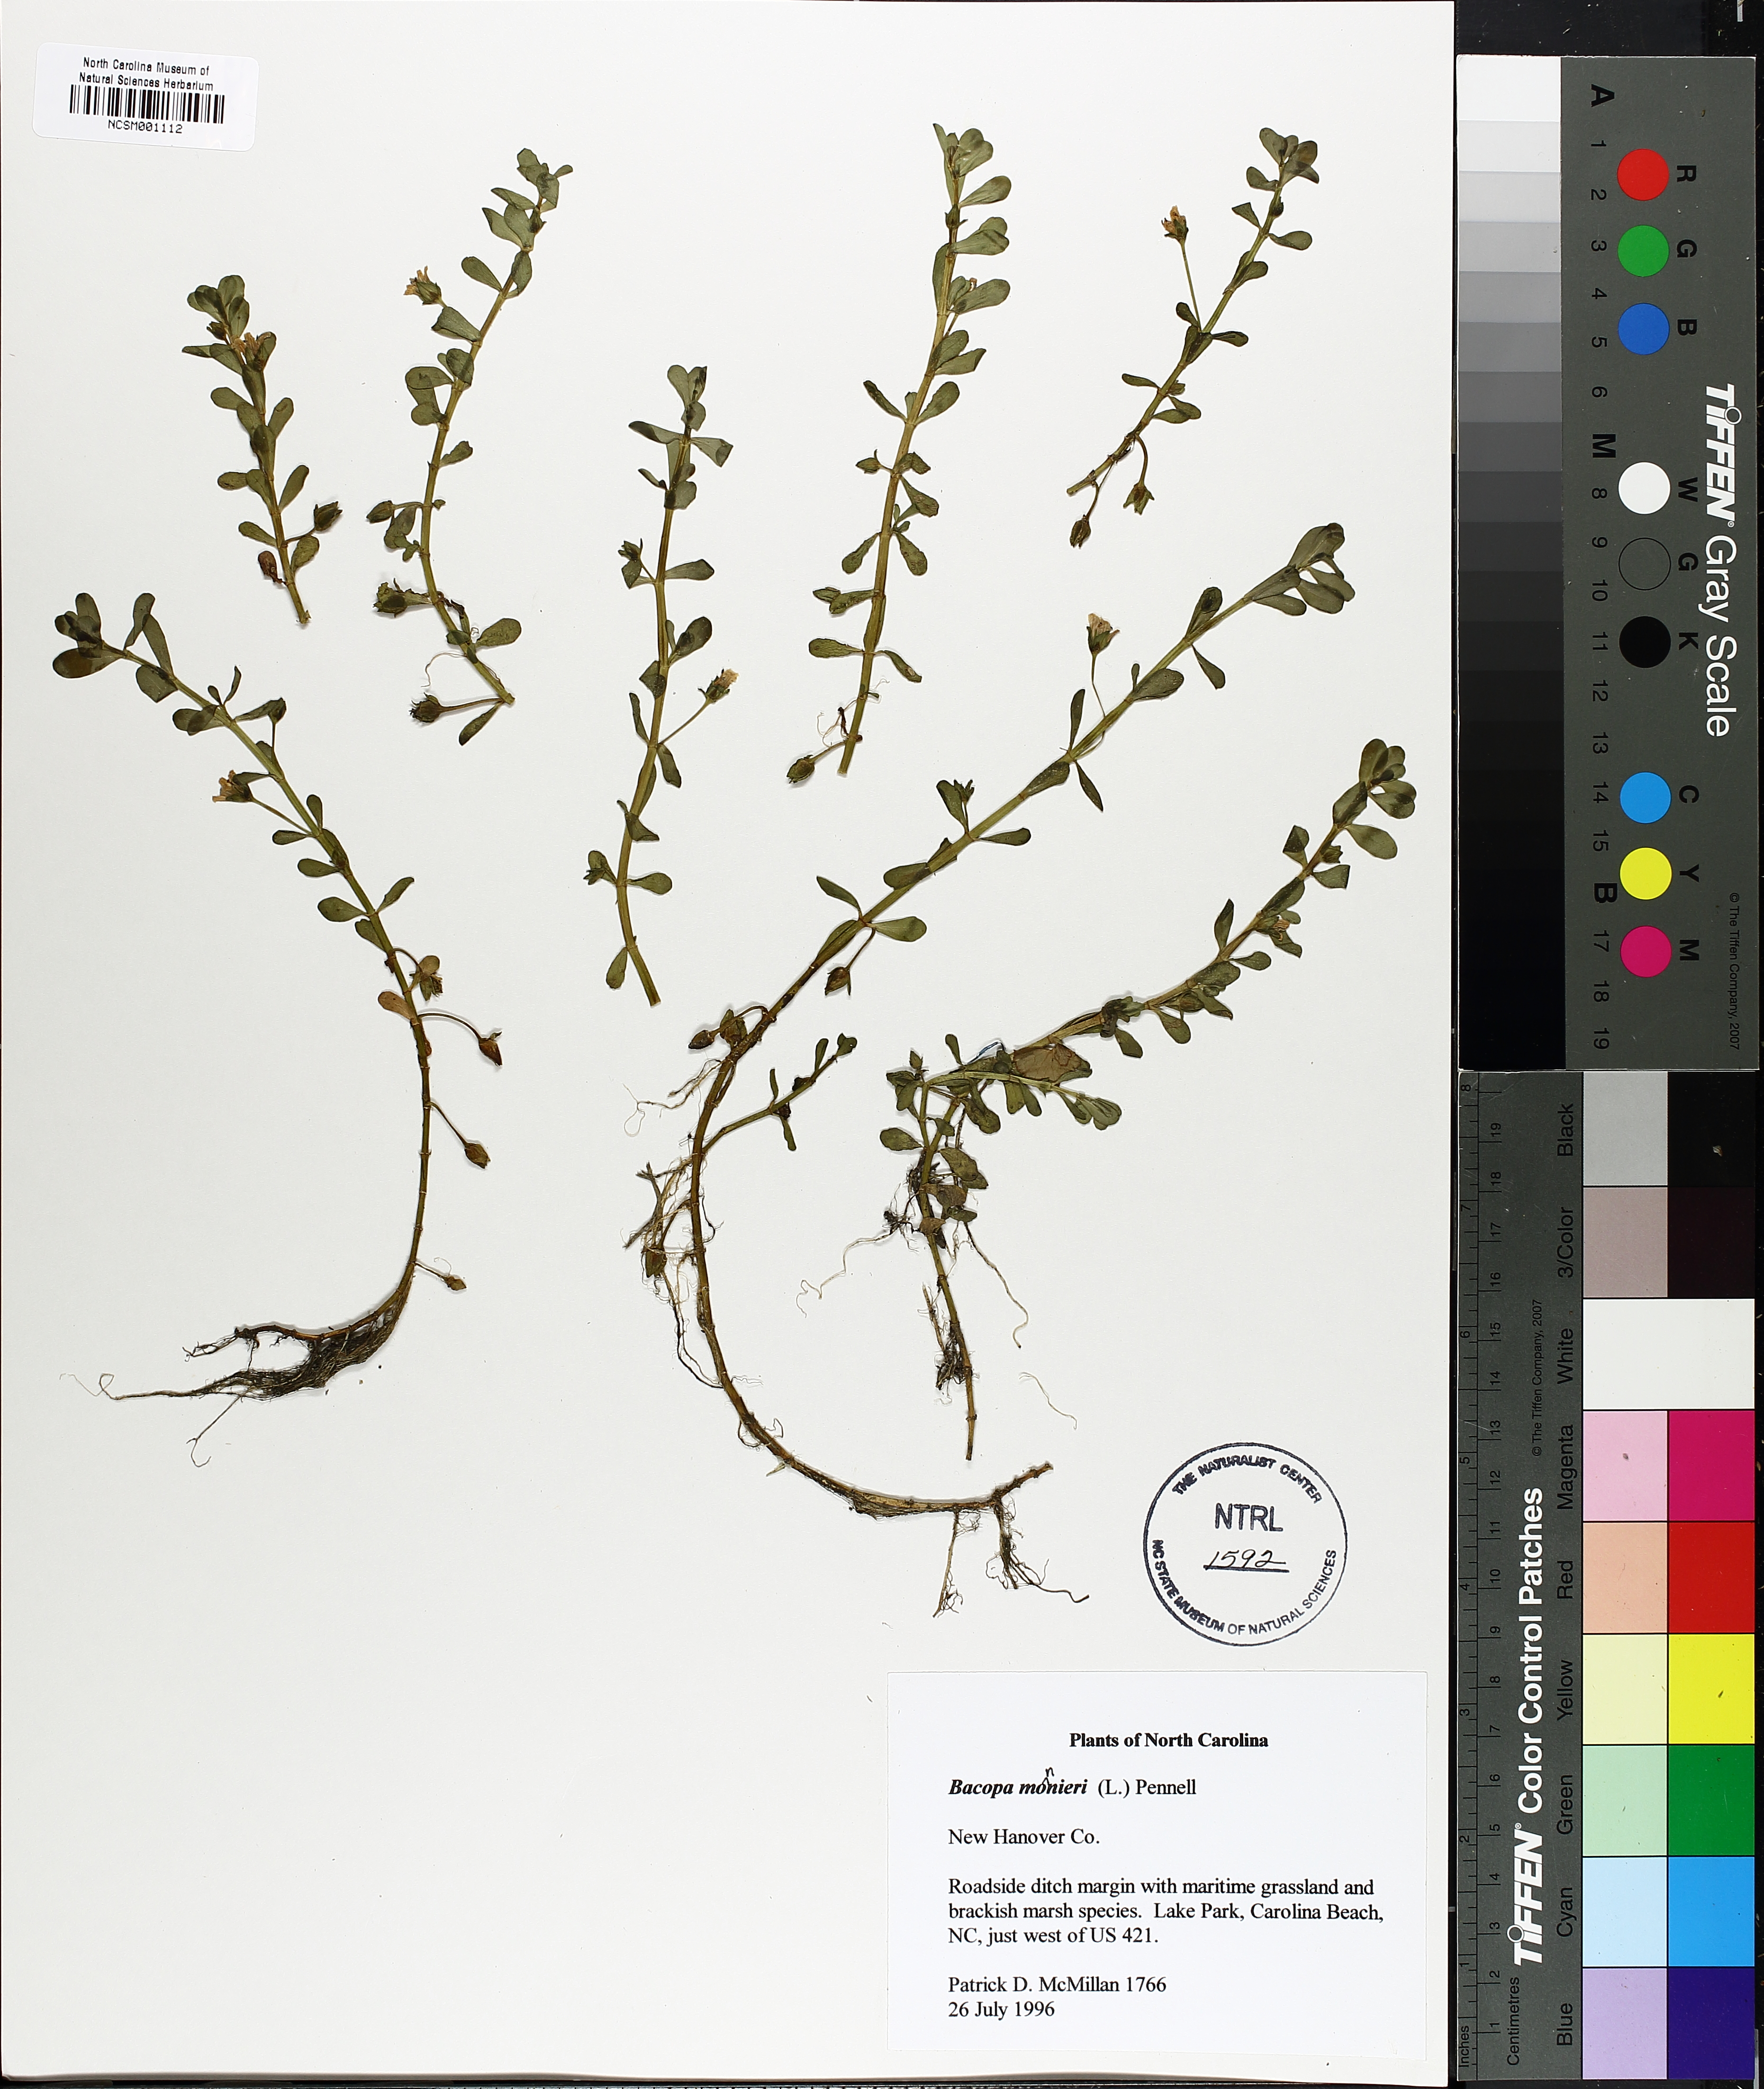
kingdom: Plantae
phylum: Tracheophyta
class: Magnoliopsida
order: Lamiales
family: Plantaginaceae
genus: Bacopa
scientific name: Bacopa monnieri
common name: Indian-pennywort
